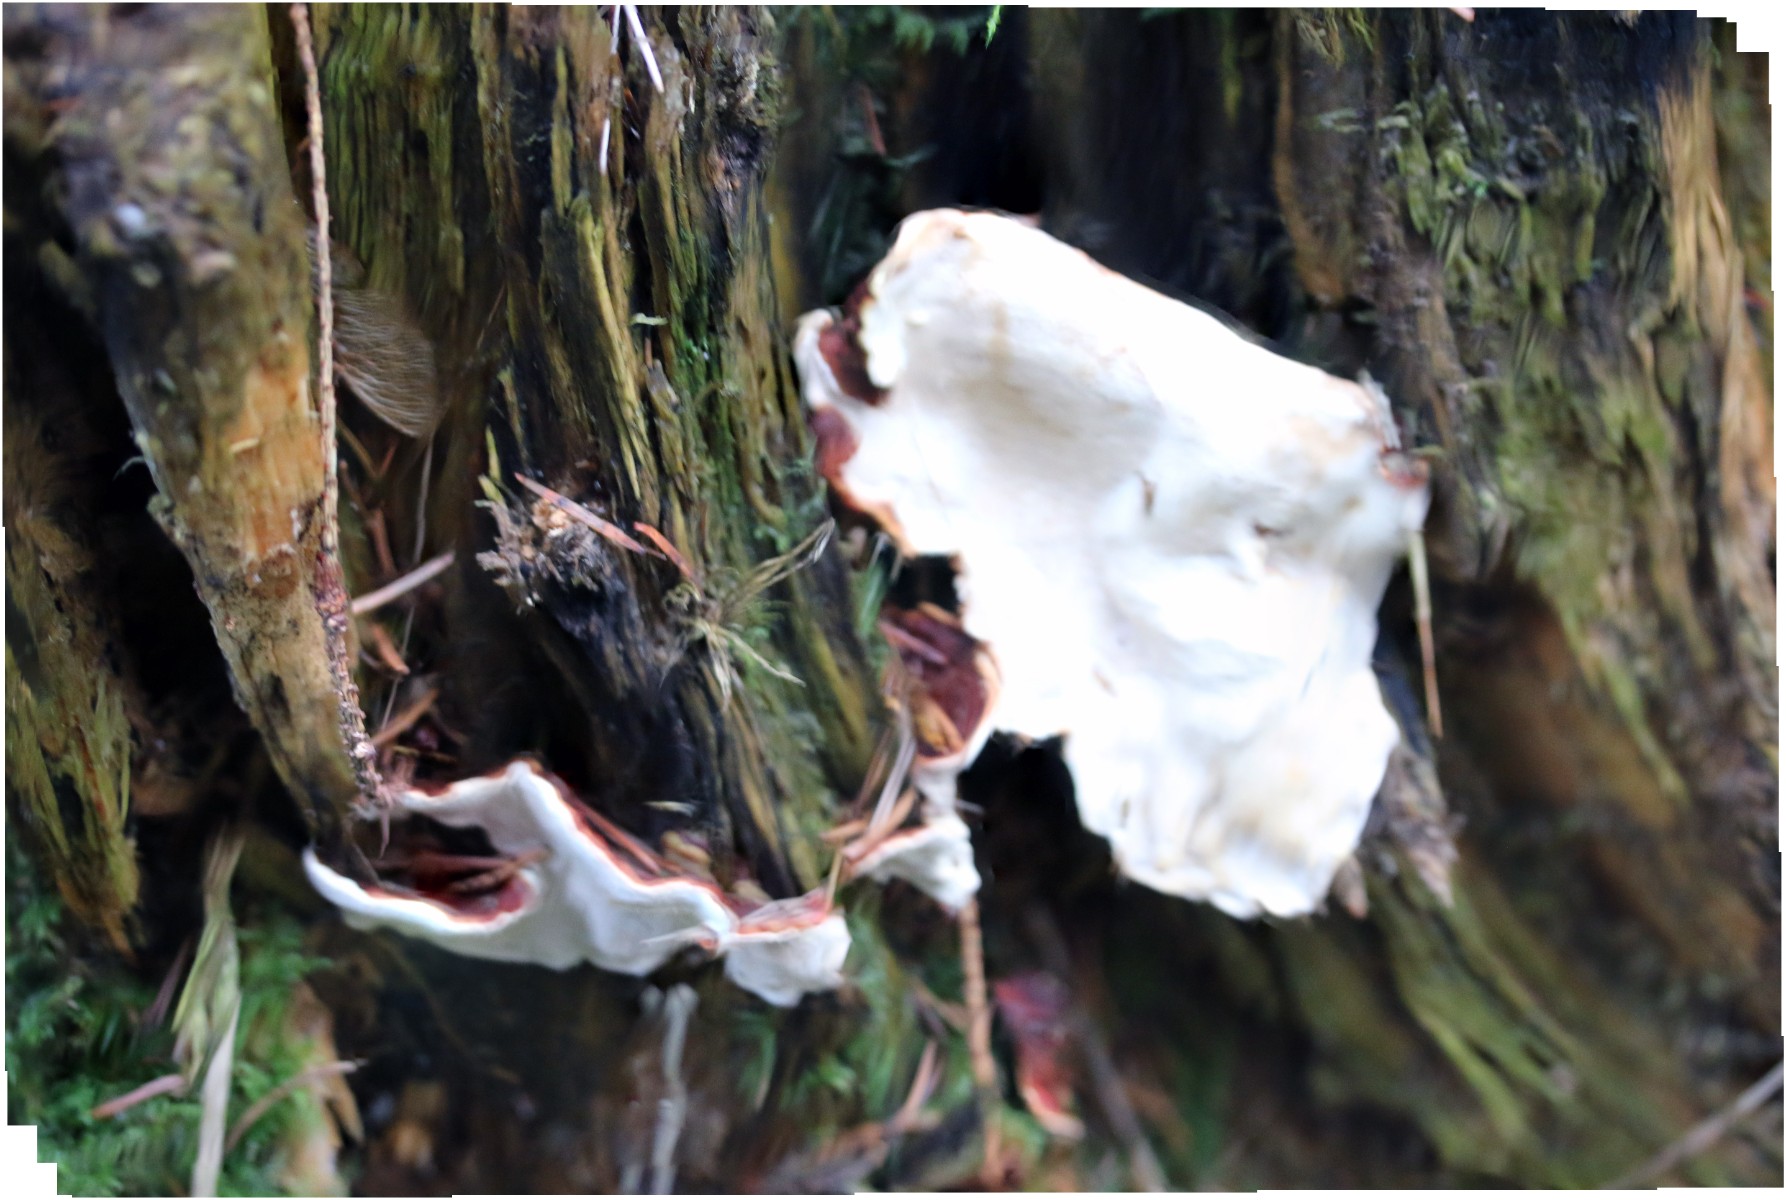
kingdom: Fungi
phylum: Basidiomycota
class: Agaricomycetes
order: Russulales
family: Bondarzewiaceae
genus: Heterobasidion
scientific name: Heterobasidion annosum
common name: almindelig rodfordærver
